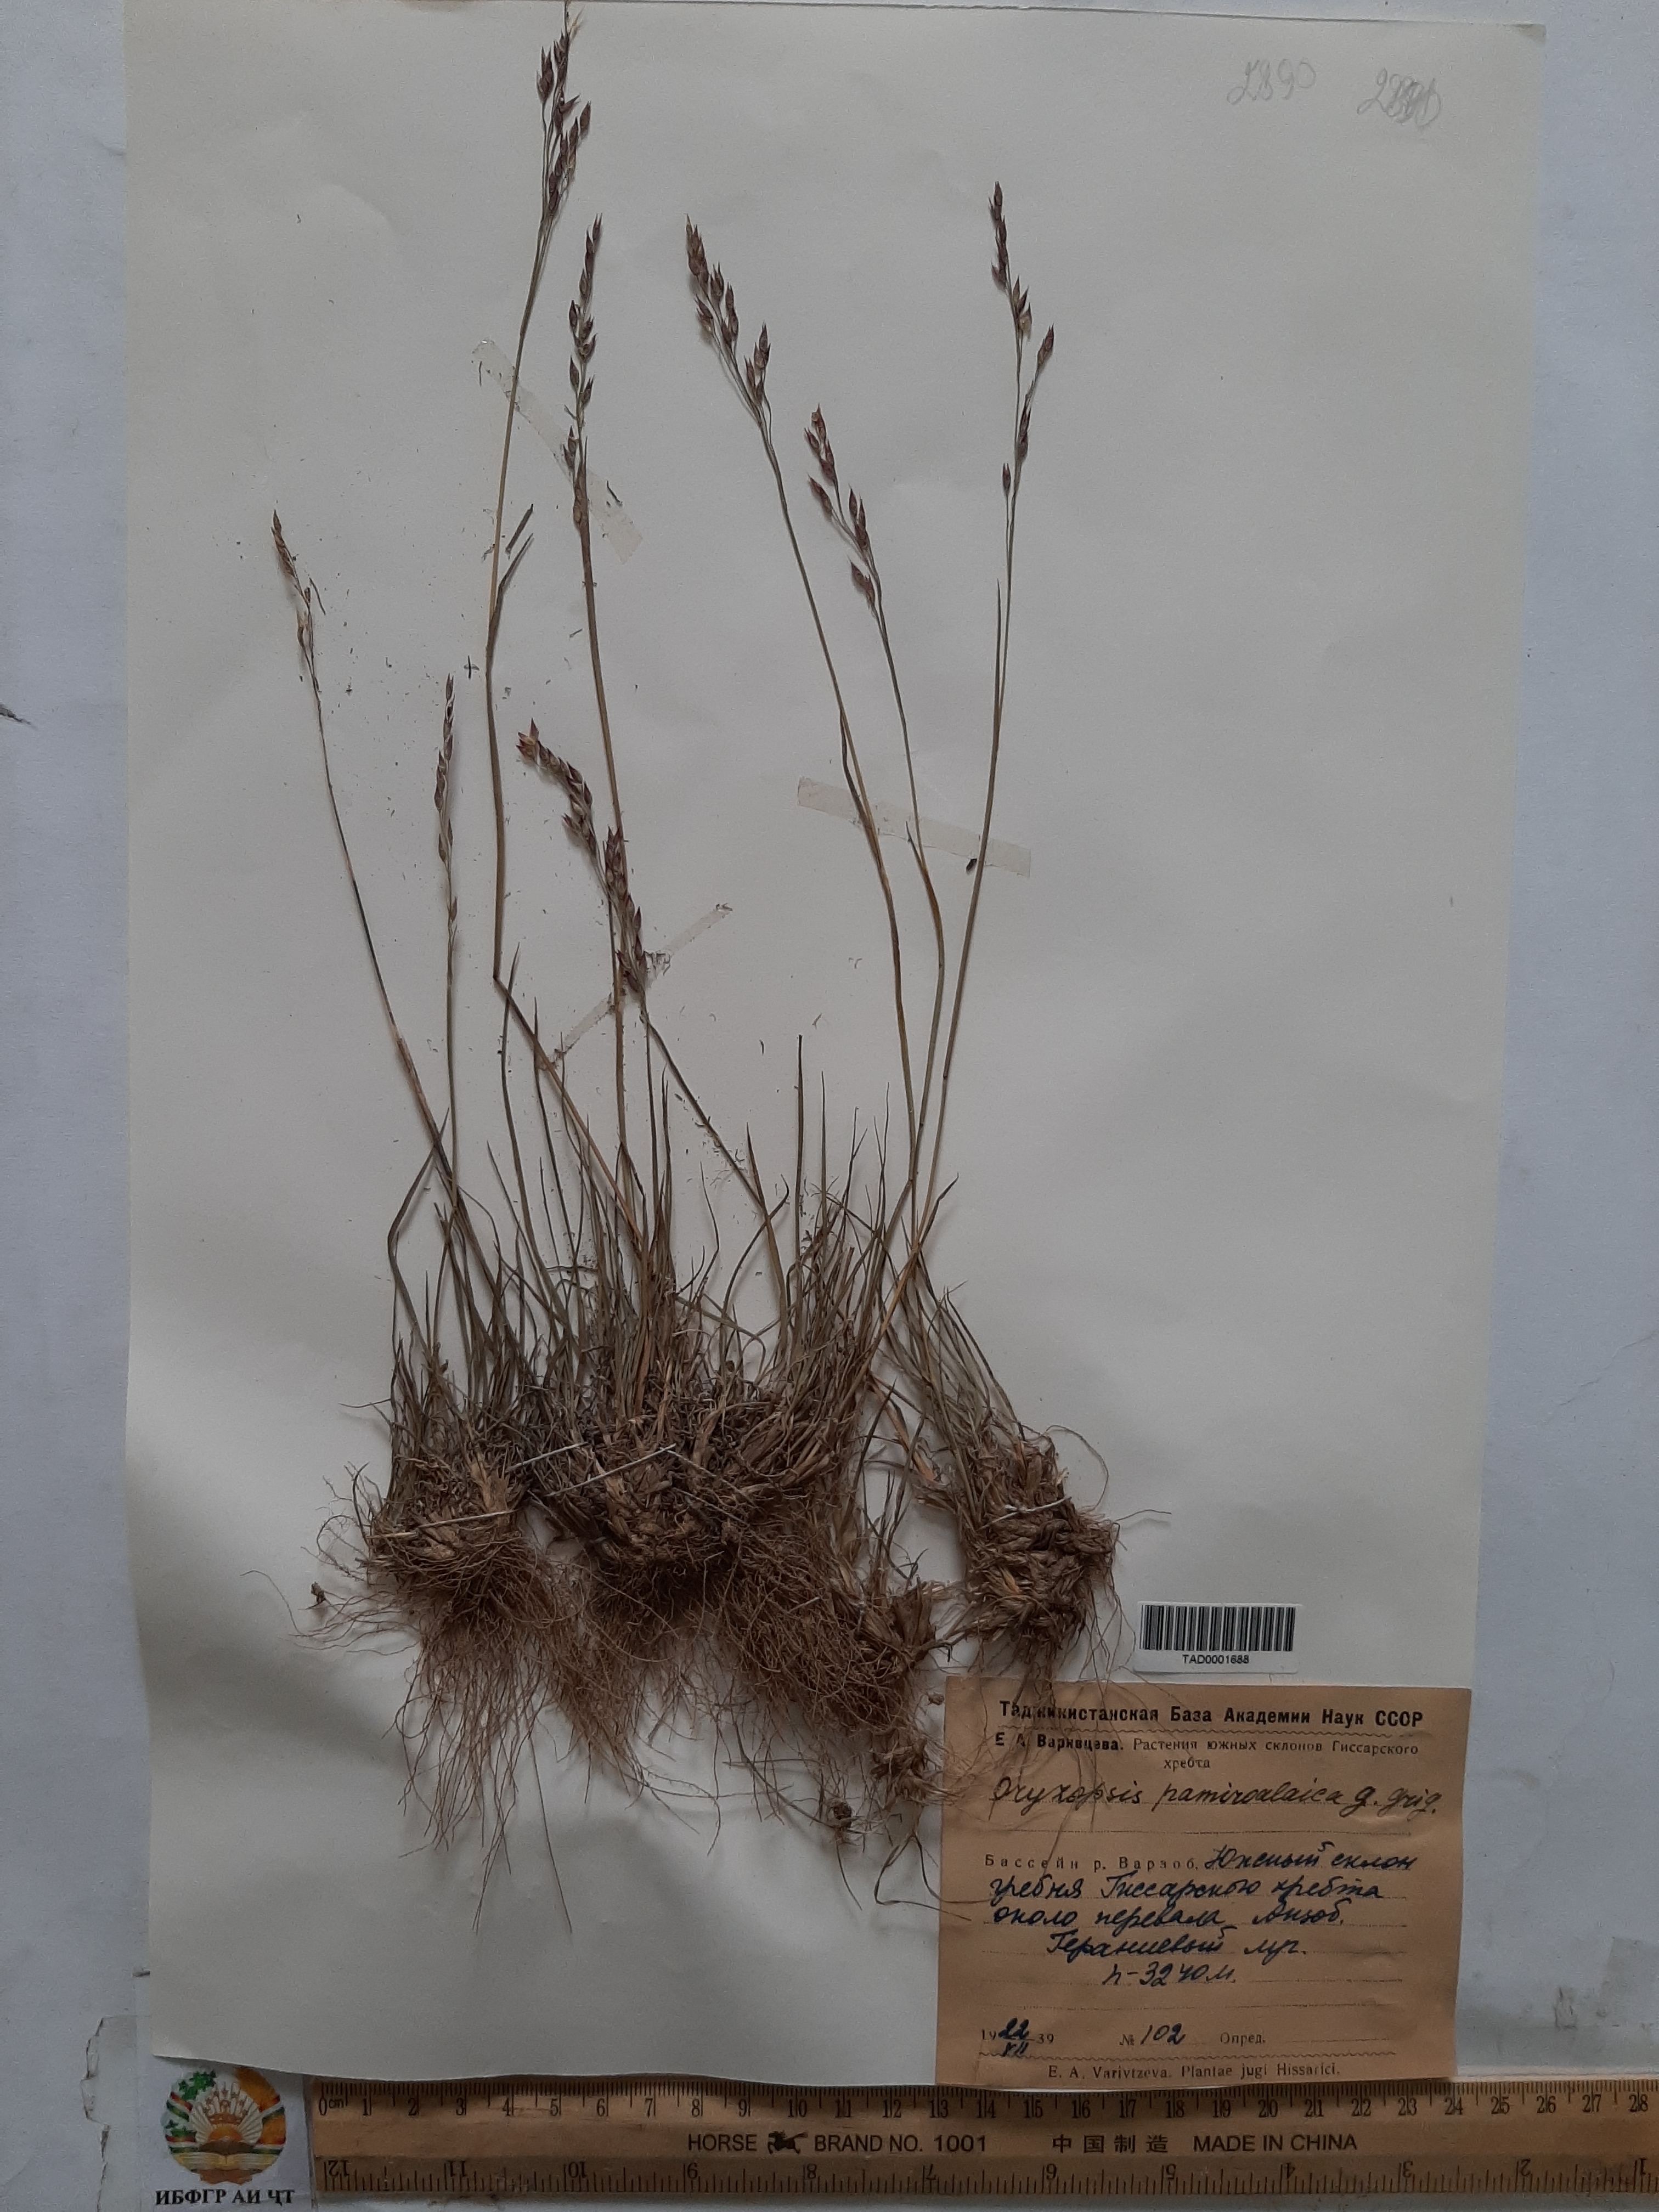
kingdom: Plantae
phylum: Tracheophyta
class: Liliopsida
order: Poales
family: Poaceae
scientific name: Poaceae
